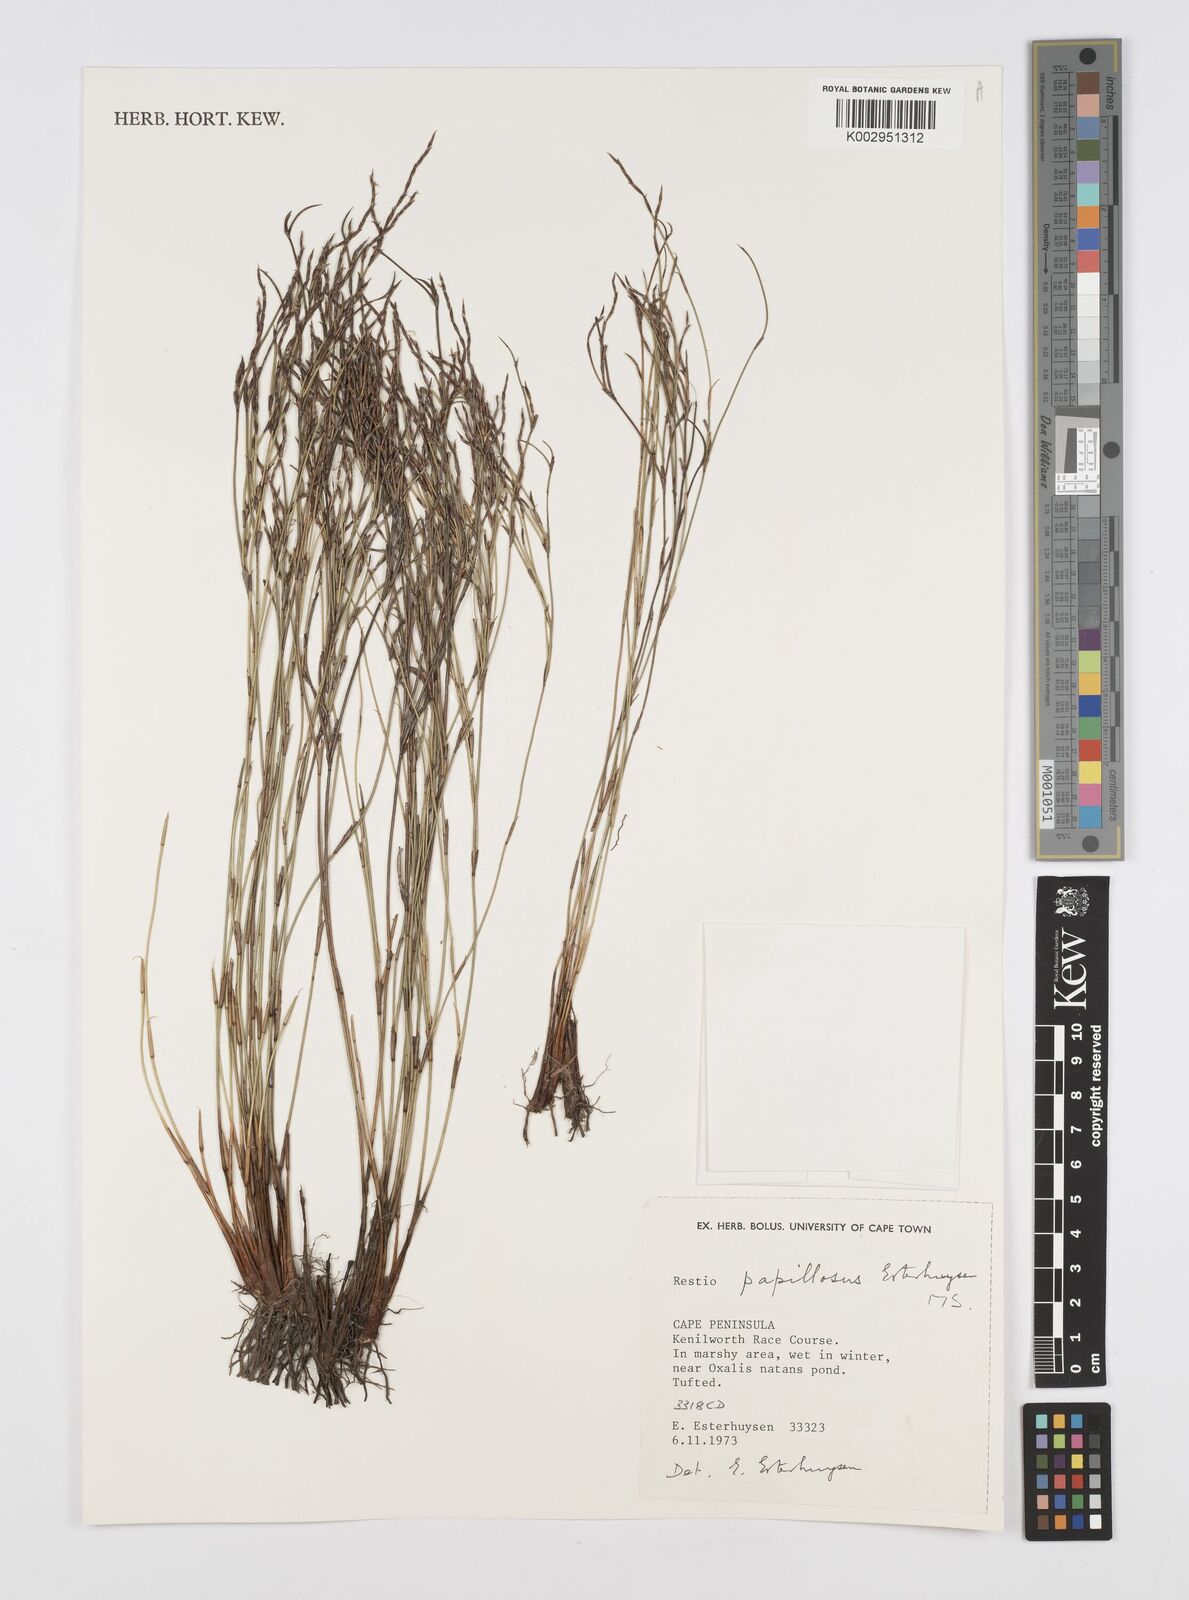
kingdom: Plantae
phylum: Tracheophyta
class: Liliopsida
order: Poales
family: Restionaceae
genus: Restio
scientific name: Restio papillosus
